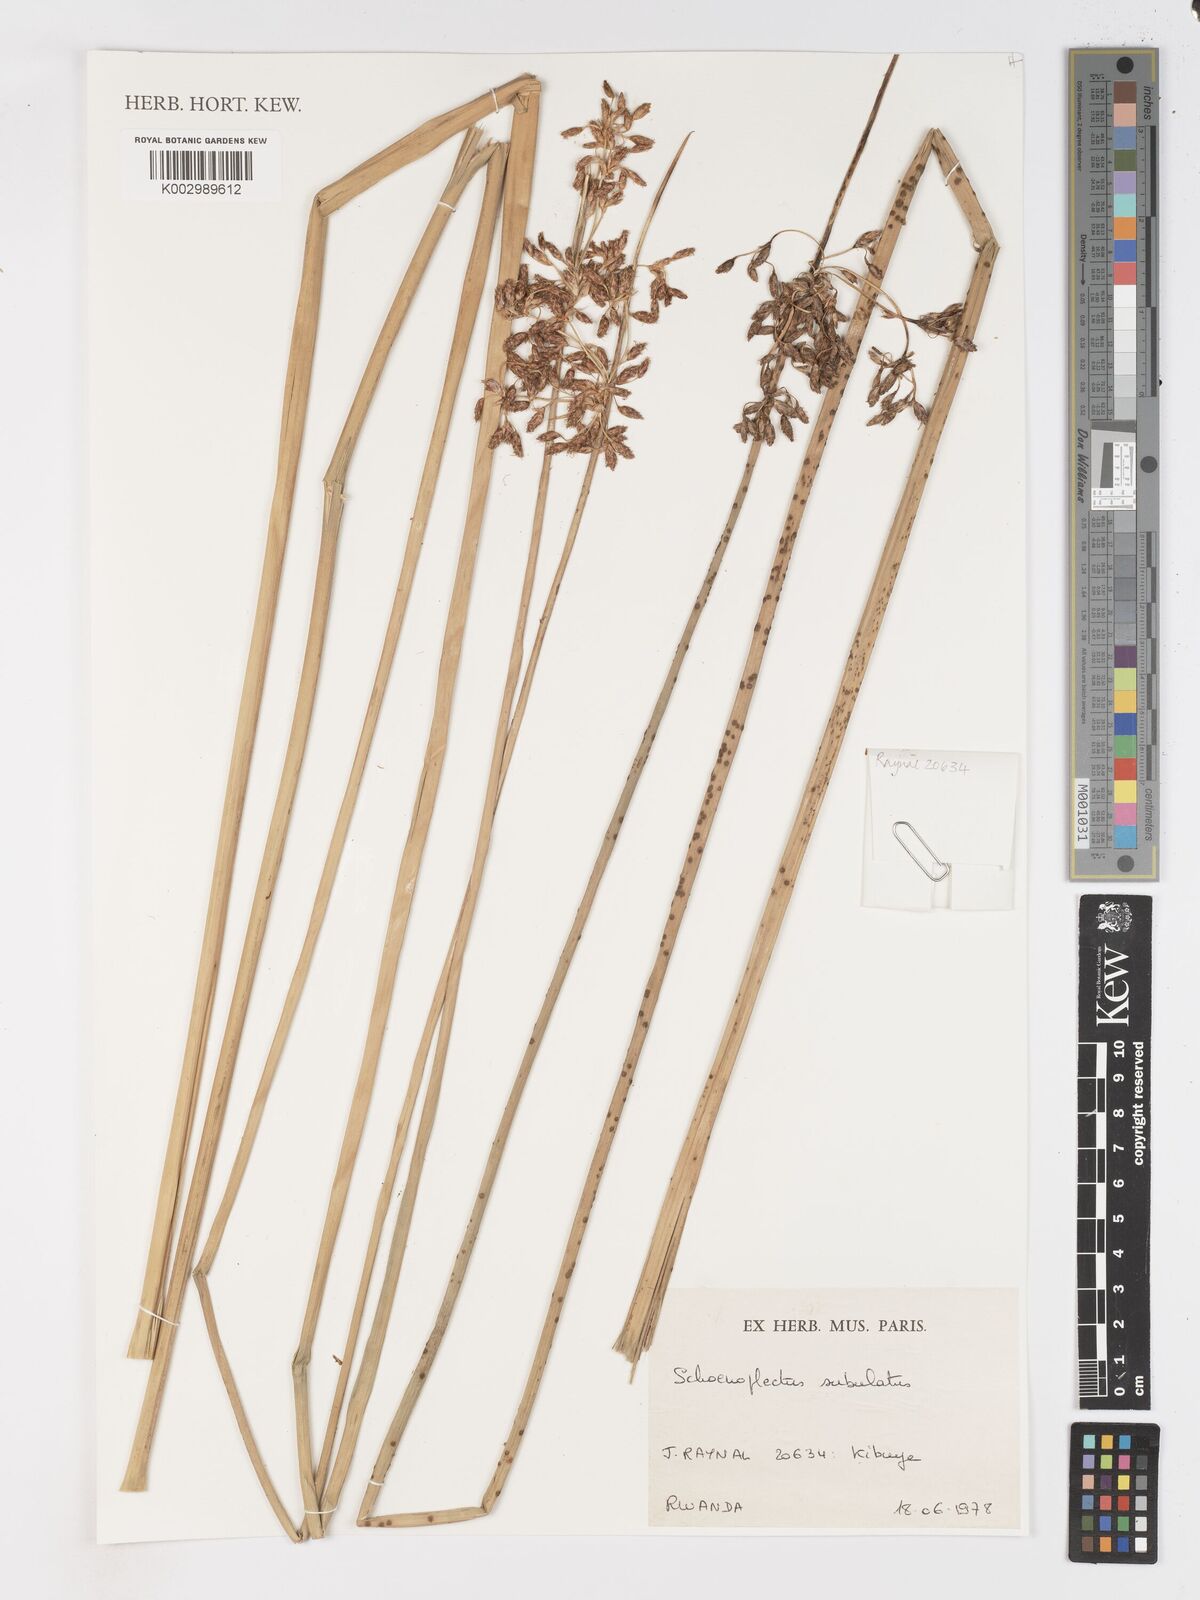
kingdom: Plantae
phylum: Tracheophyta
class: Liliopsida
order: Poales
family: Cyperaceae
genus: Schoenoplectus
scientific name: Schoenoplectus subulatus
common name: Coast club-rush
